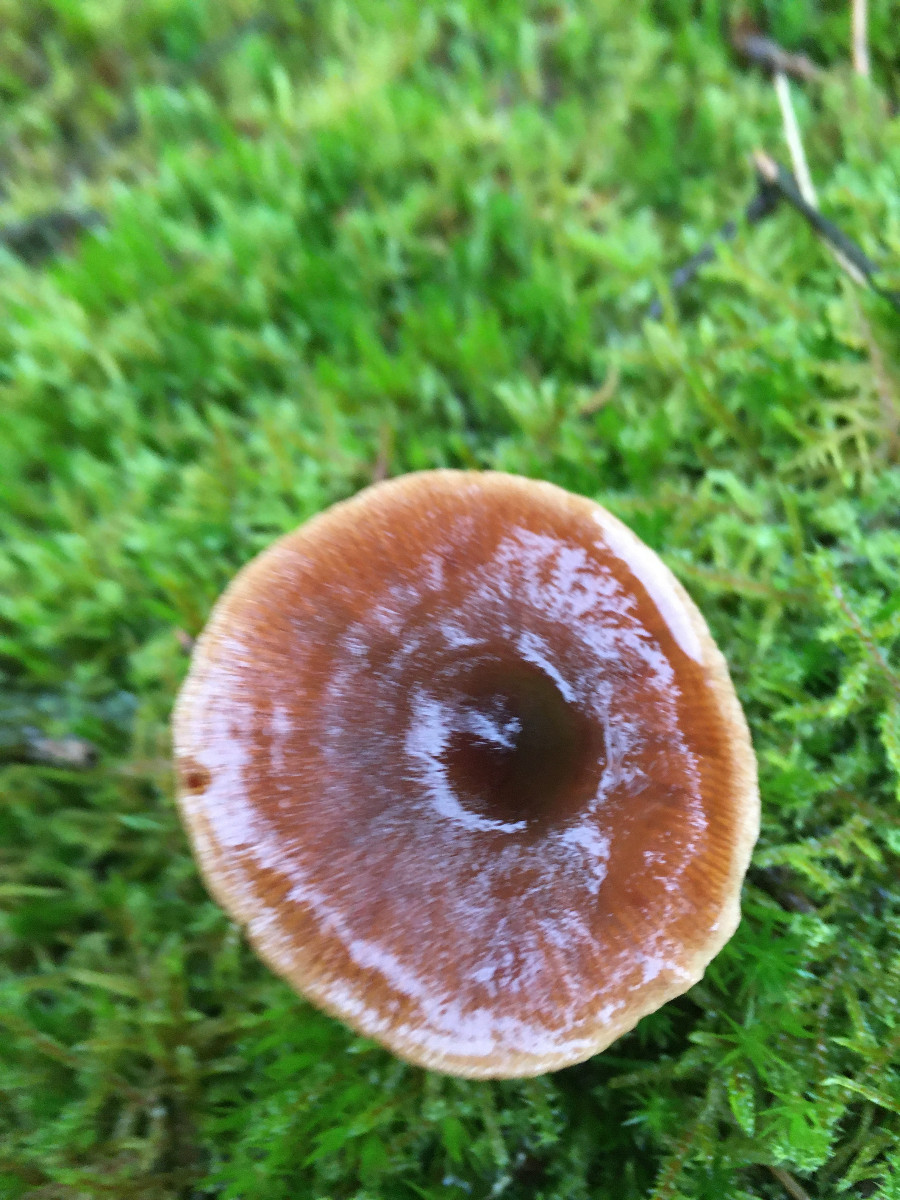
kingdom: Fungi
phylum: Basidiomycota
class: Agaricomycetes
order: Agaricales
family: Cortinariaceae
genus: Cortinarius
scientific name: Cortinarius
